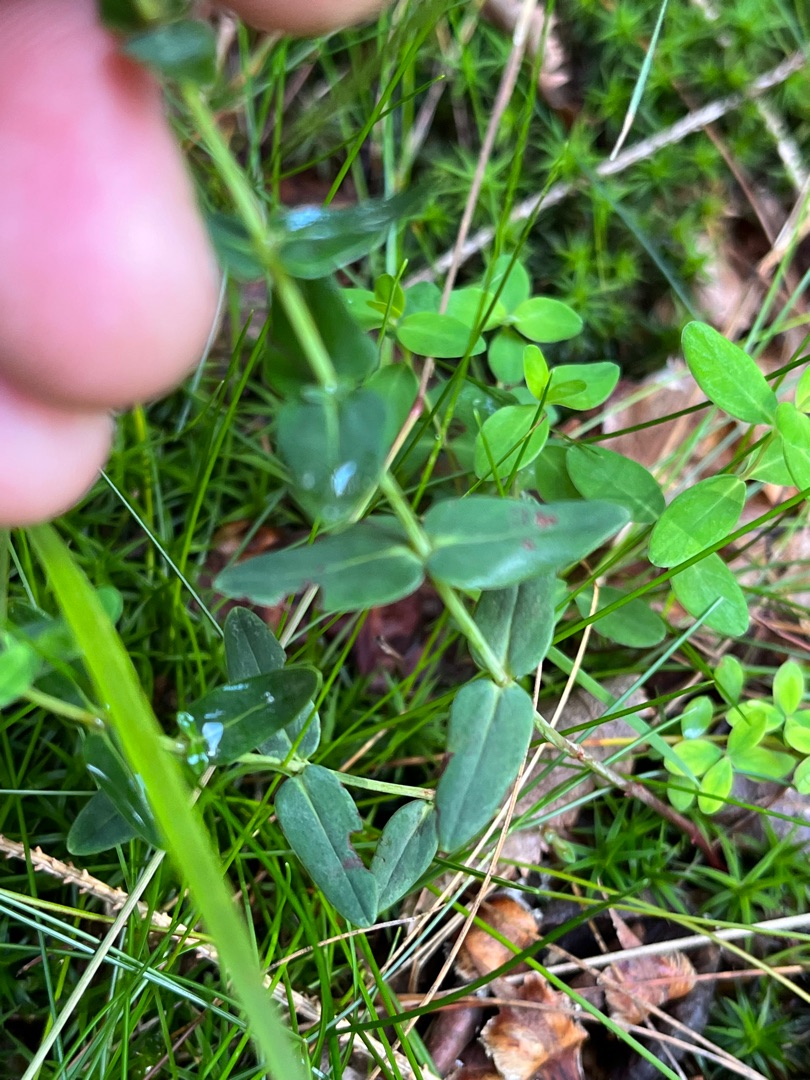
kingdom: Plantae
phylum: Tracheophyta
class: Magnoliopsida
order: Malpighiales
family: Hypericaceae
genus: Hypericum
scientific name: Hypericum pulchrum
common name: Smuk perikon
